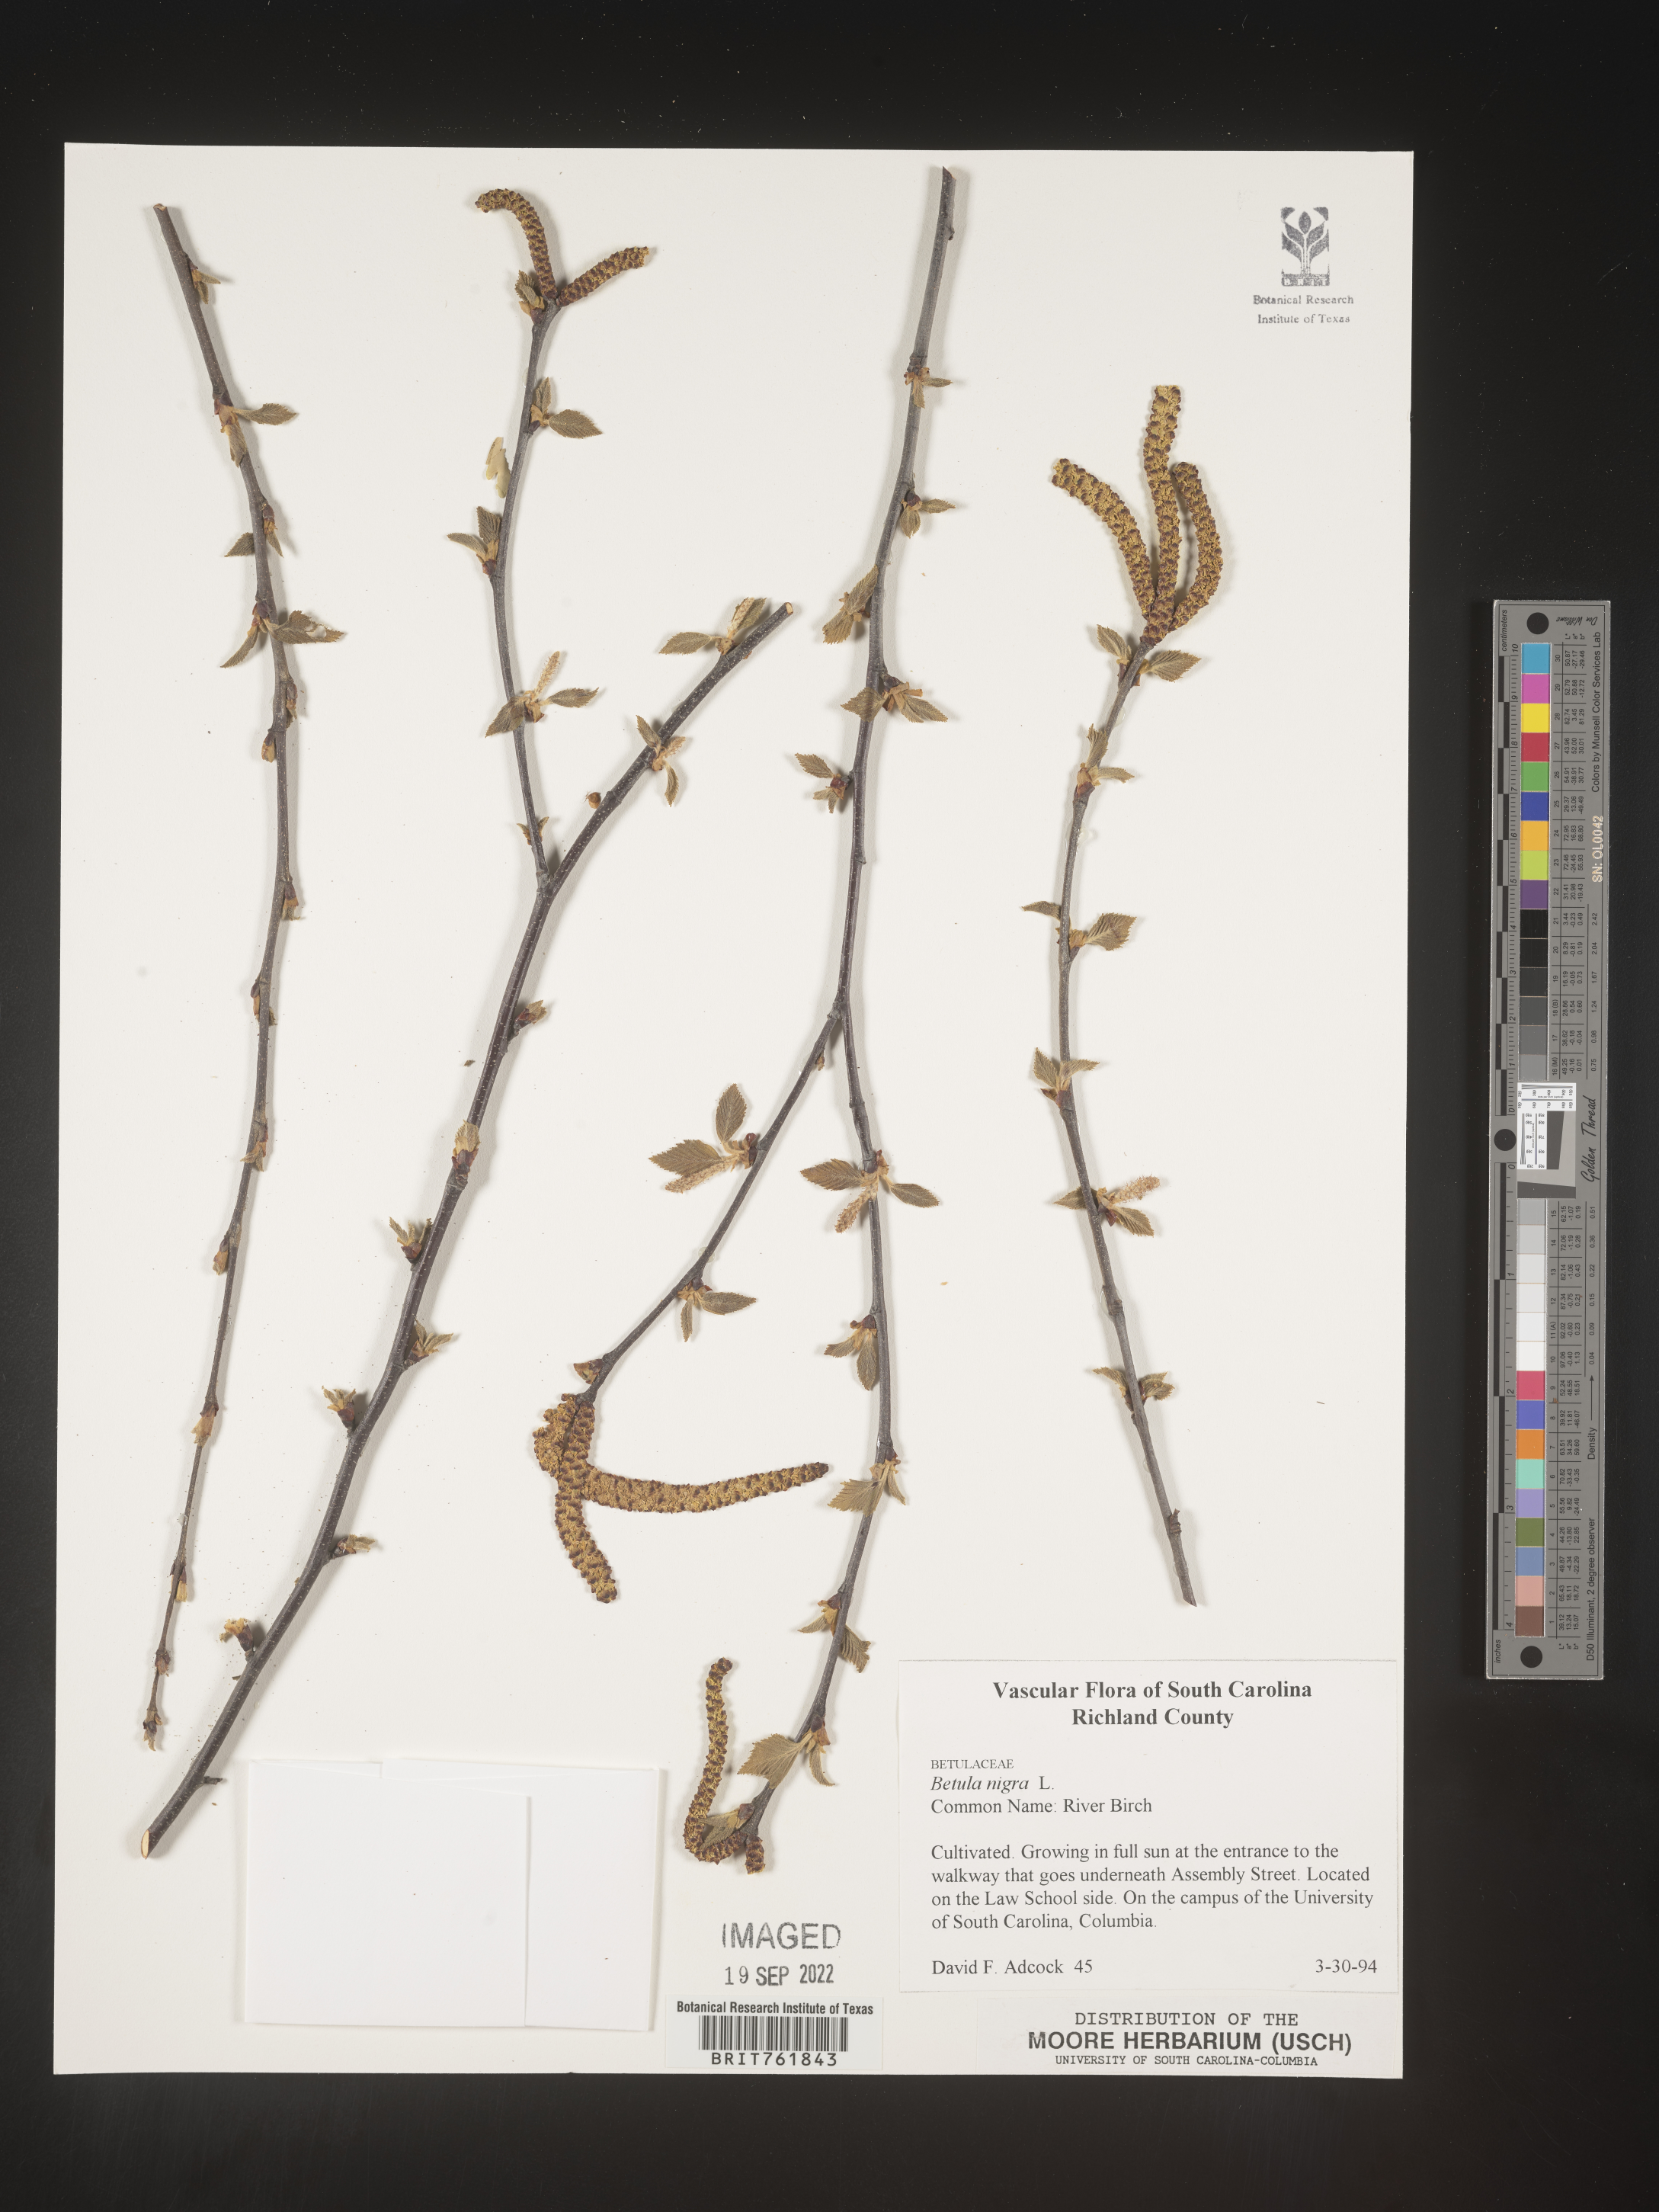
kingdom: Plantae
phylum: Tracheophyta
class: Magnoliopsida
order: Fagales
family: Betulaceae
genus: Betula
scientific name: Betula nigra
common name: Black birch
